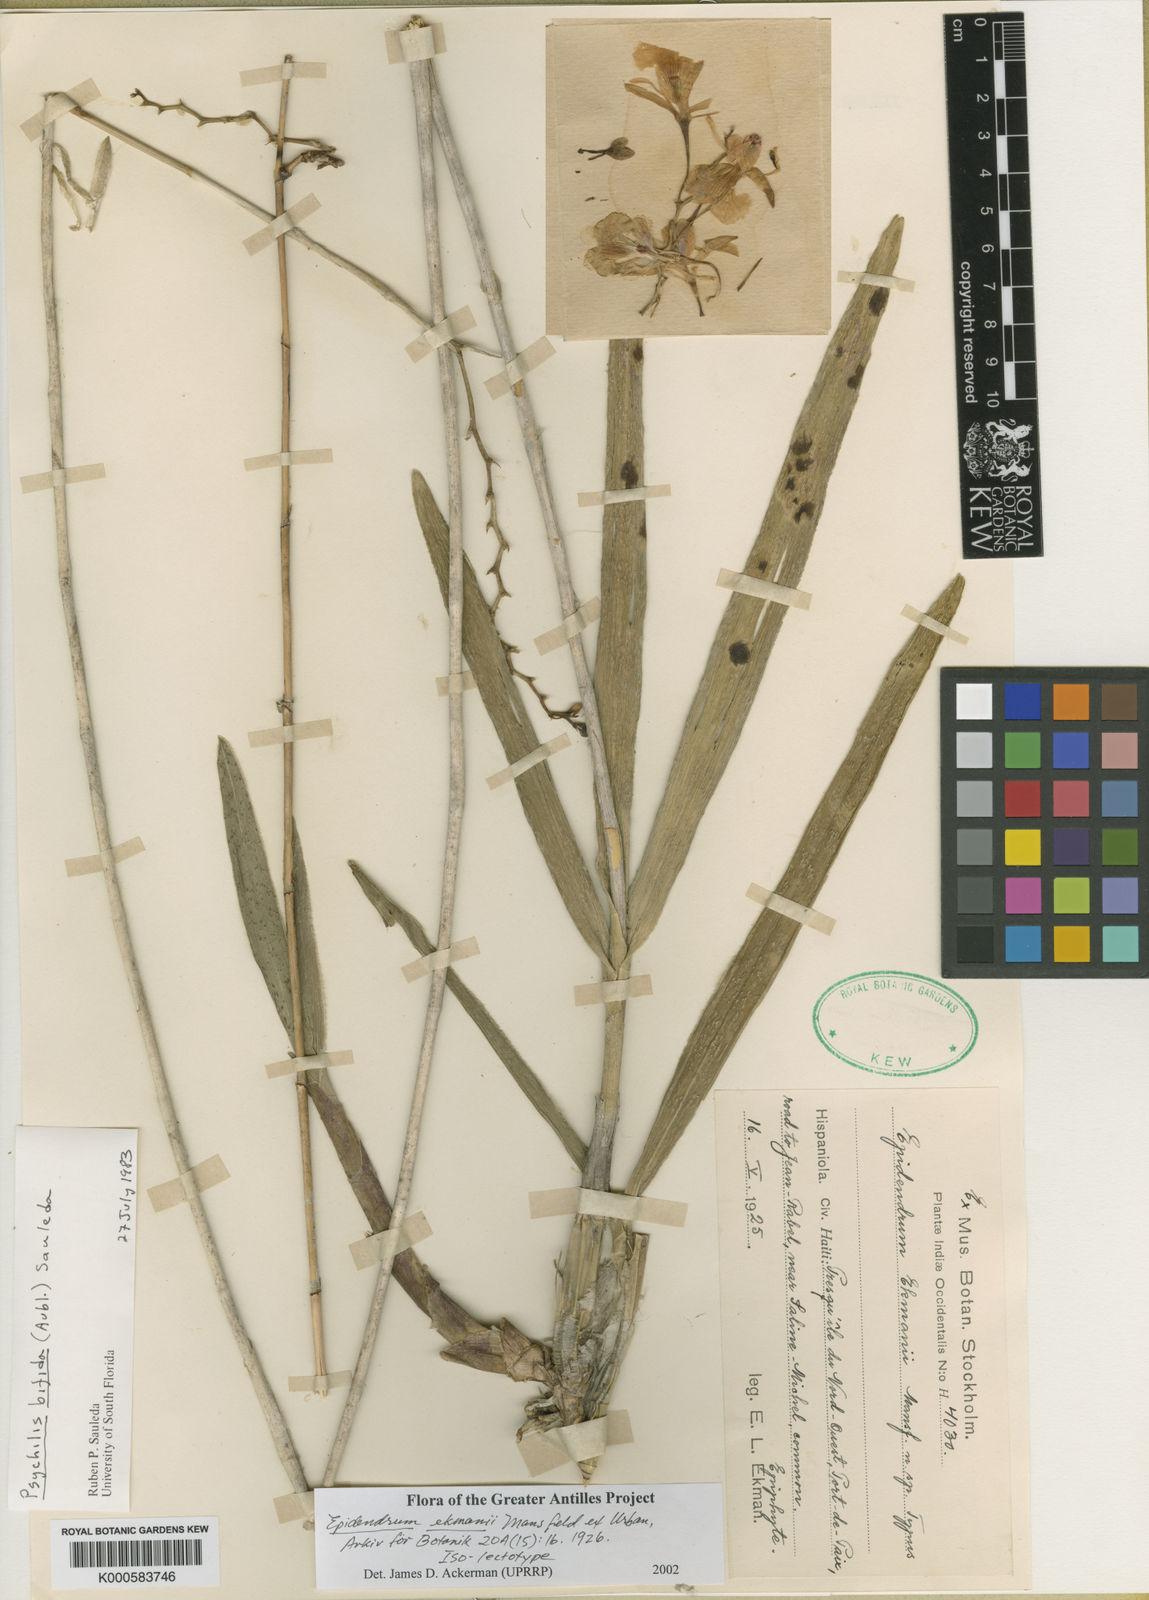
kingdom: Plantae
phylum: Tracheophyta
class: Liliopsida
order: Asparagales
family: Orchidaceae
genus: Epidendrum
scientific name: Epidendrum
